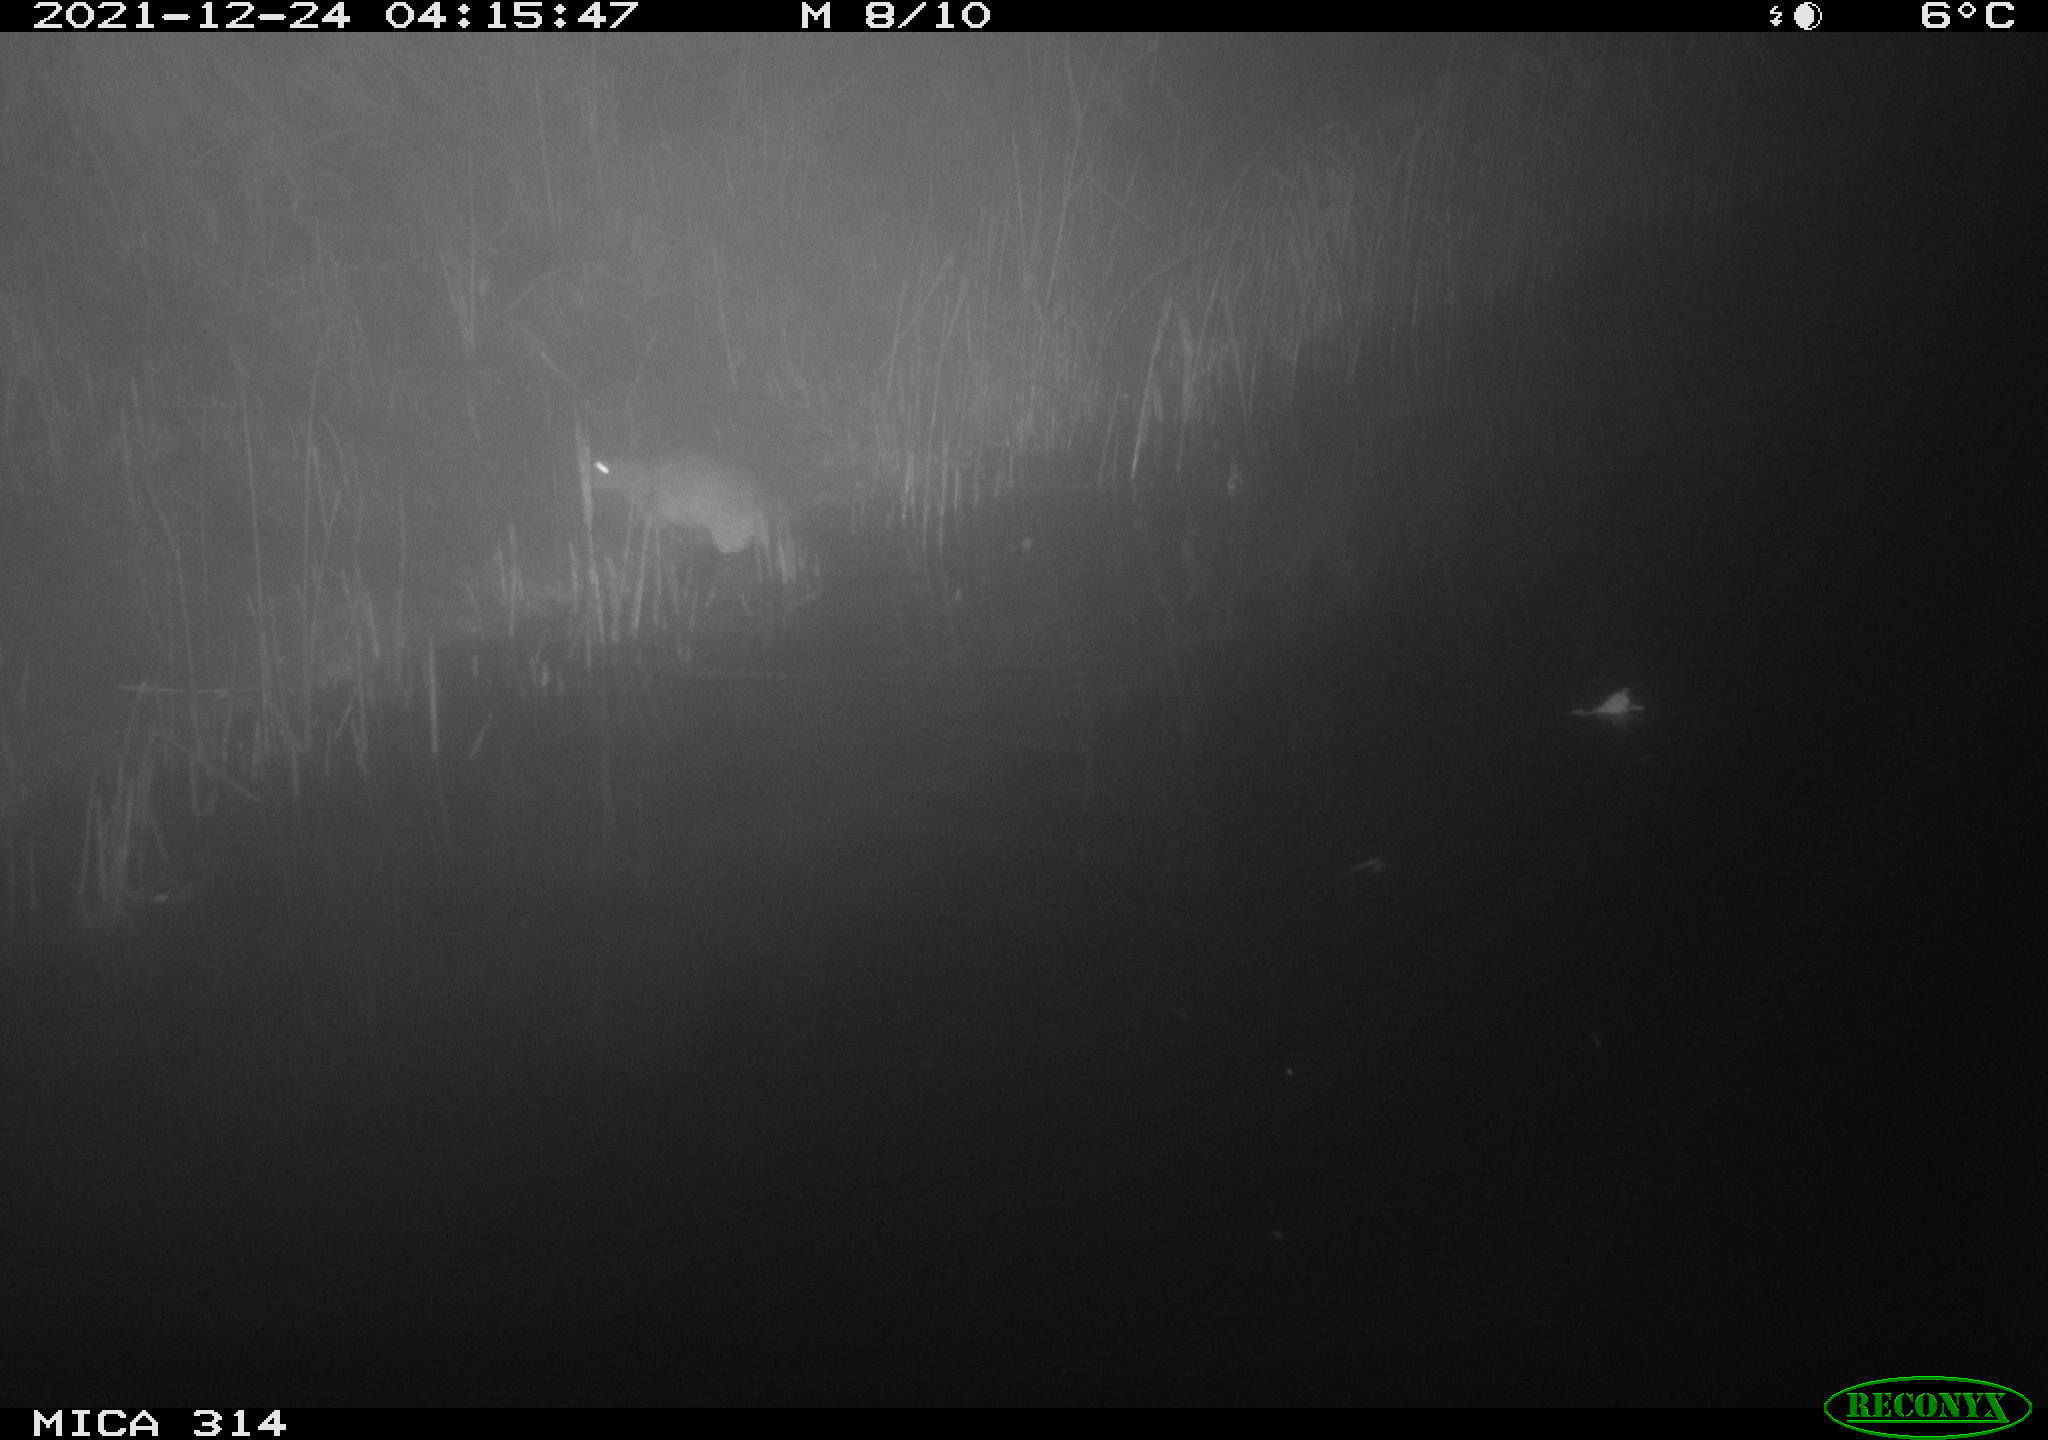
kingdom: Animalia
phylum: Chordata
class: Mammalia
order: Rodentia
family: Muridae
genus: Rattus
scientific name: Rattus norvegicus
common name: Brown rat
